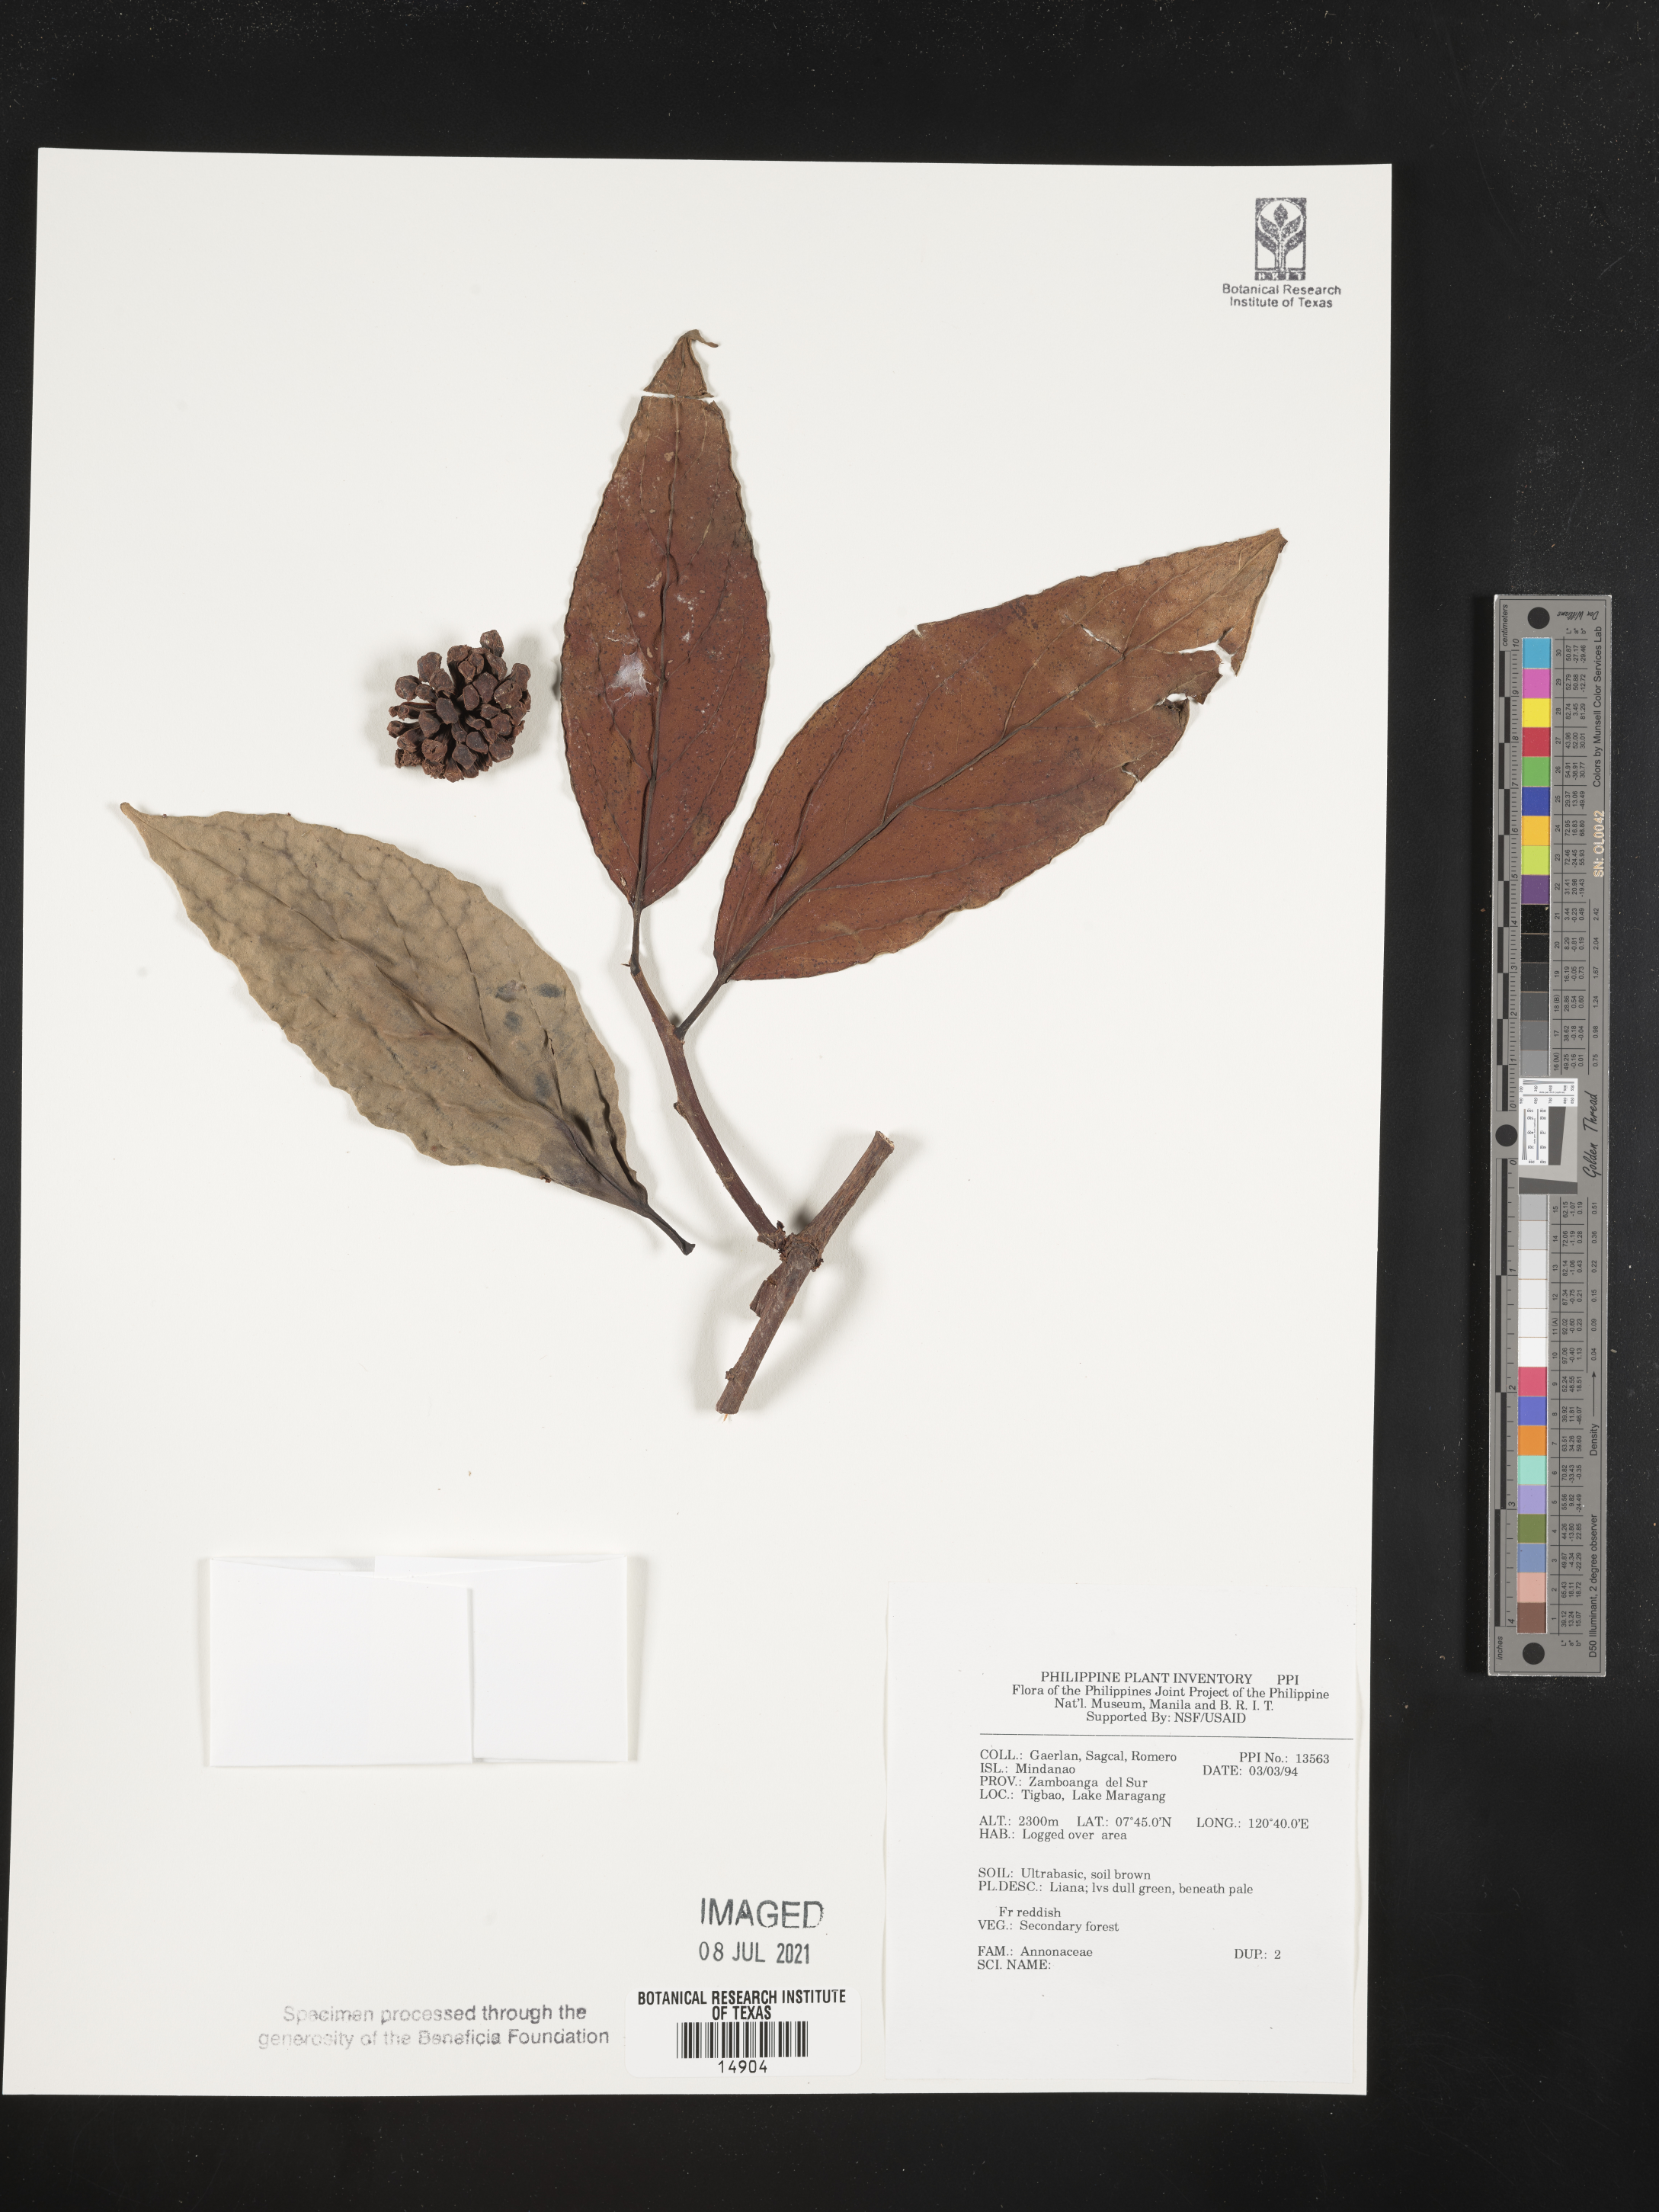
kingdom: Plantae
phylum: Tracheophyta
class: Magnoliopsida
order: Magnoliales
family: Annonaceae
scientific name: Annonaceae
